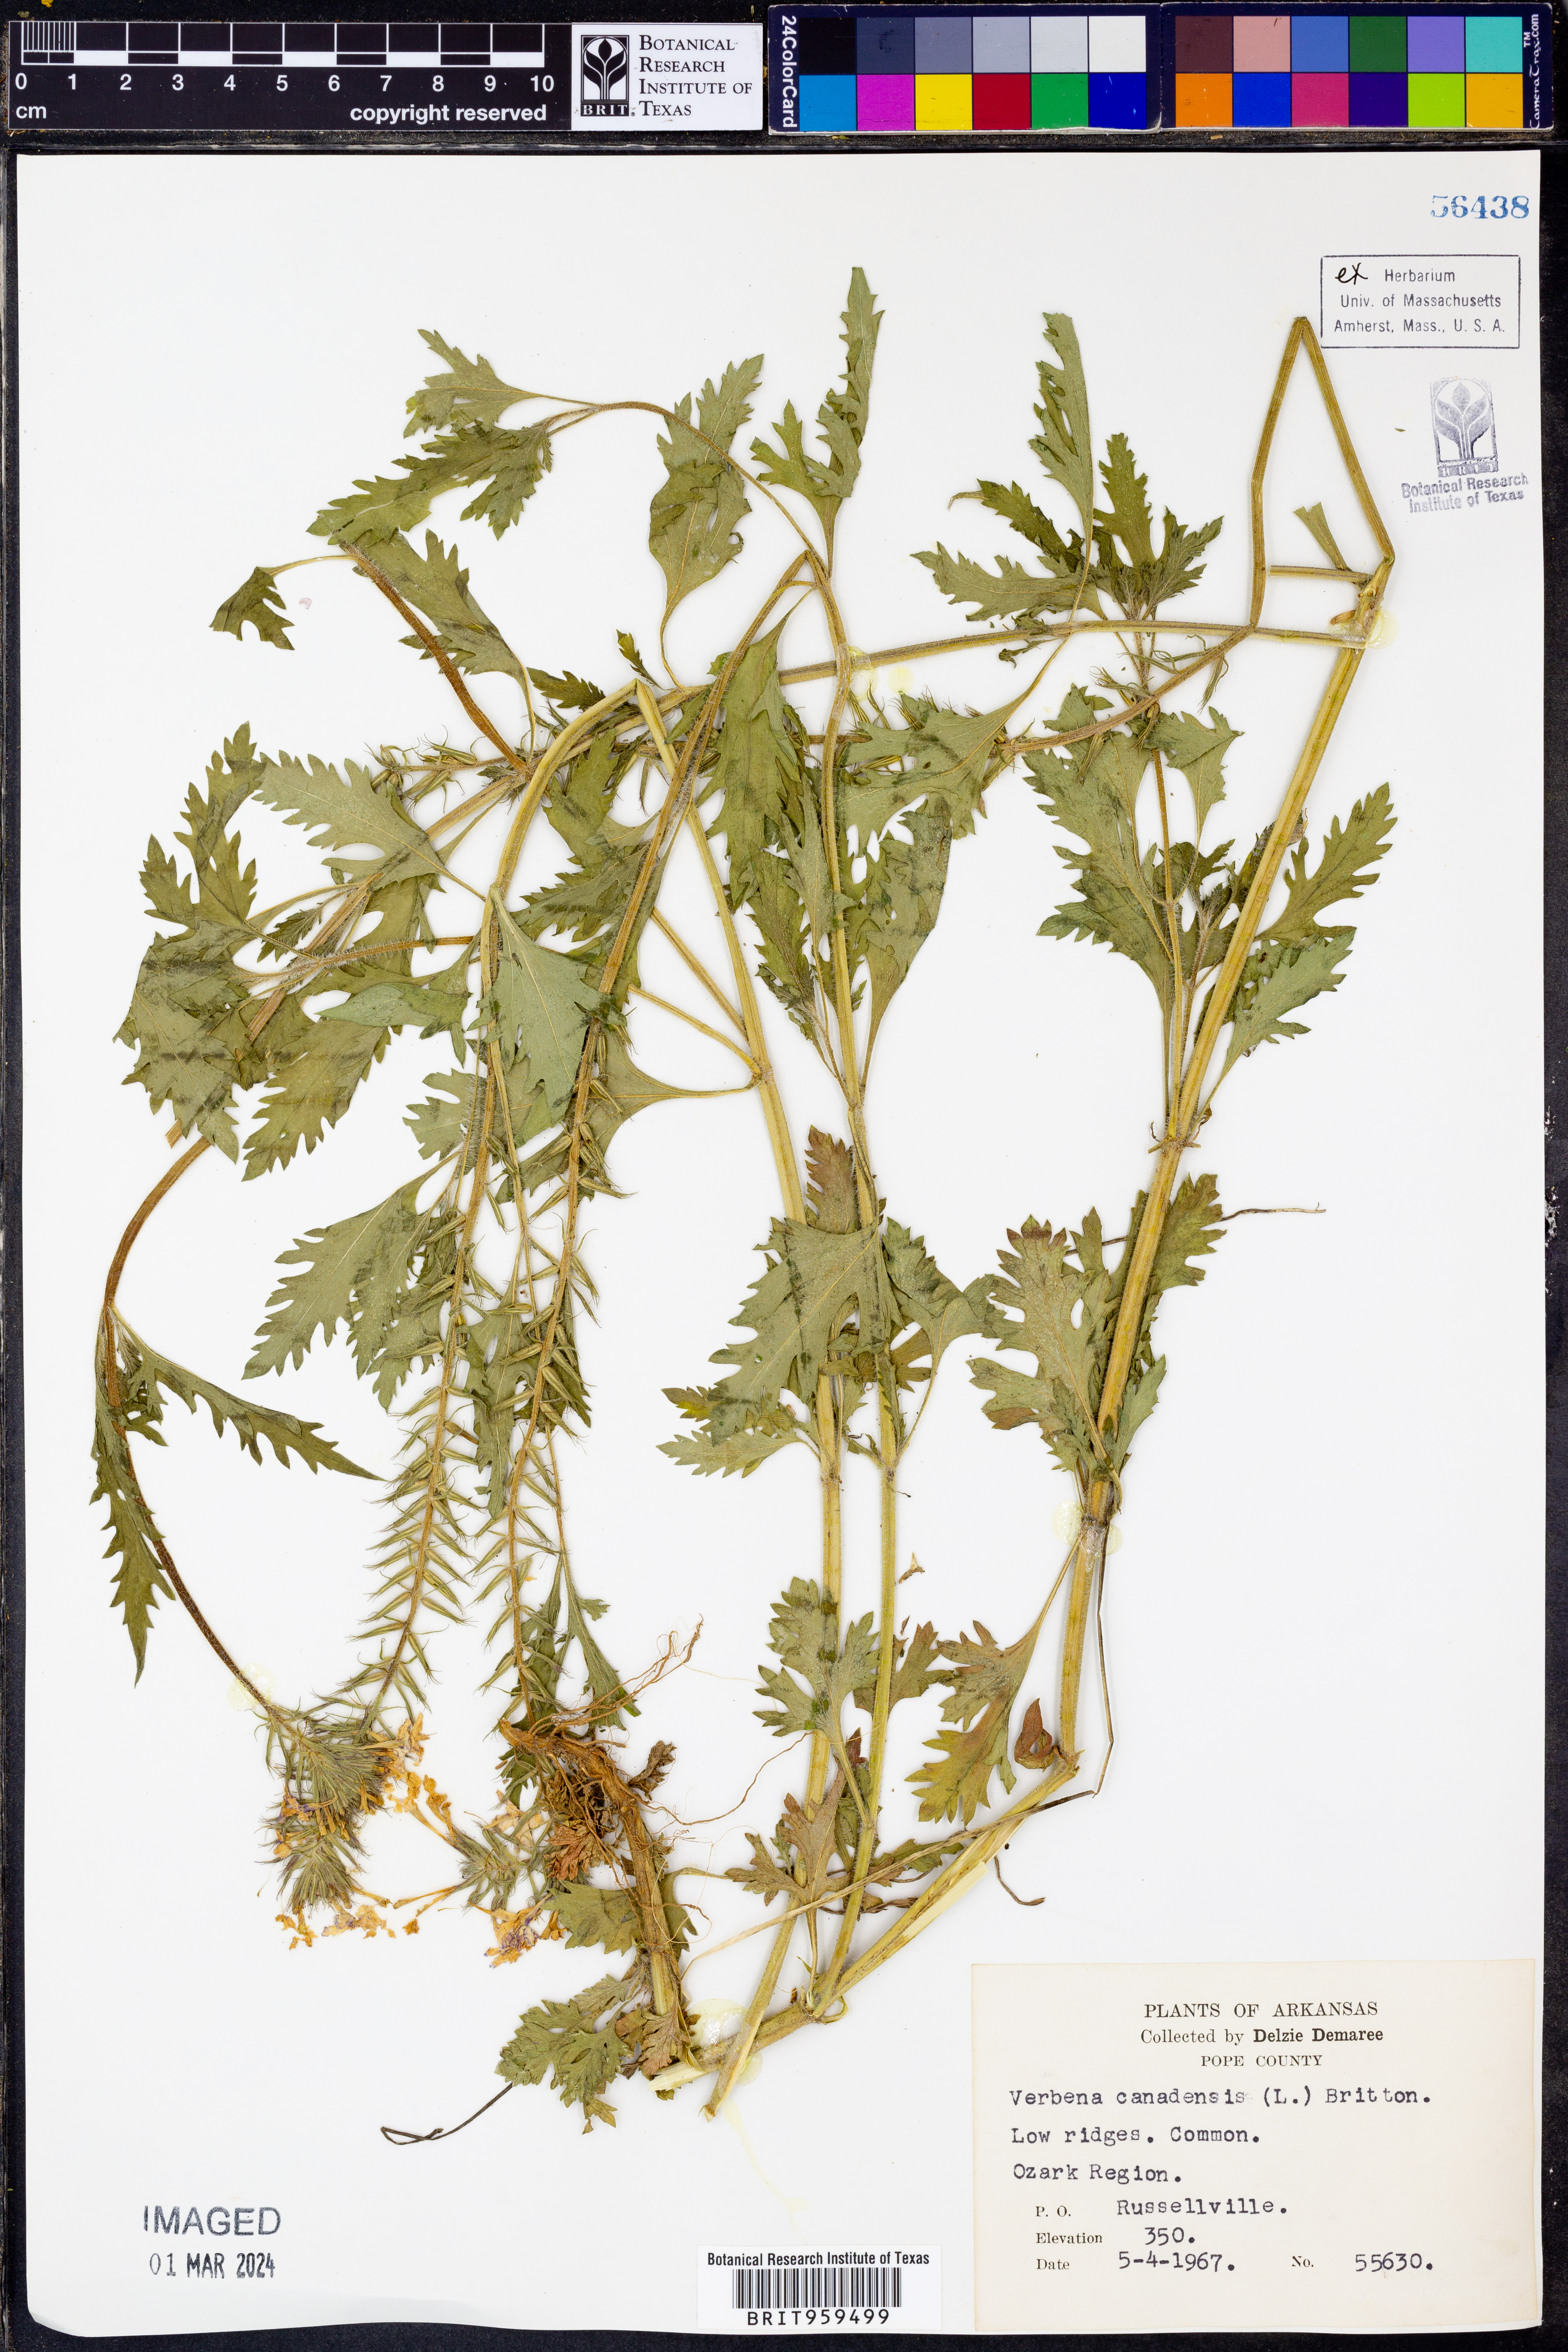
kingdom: Plantae
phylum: Tracheophyta
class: Magnoliopsida
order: Lamiales
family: Verbenaceae
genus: Verbena
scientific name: Verbena canadensis
